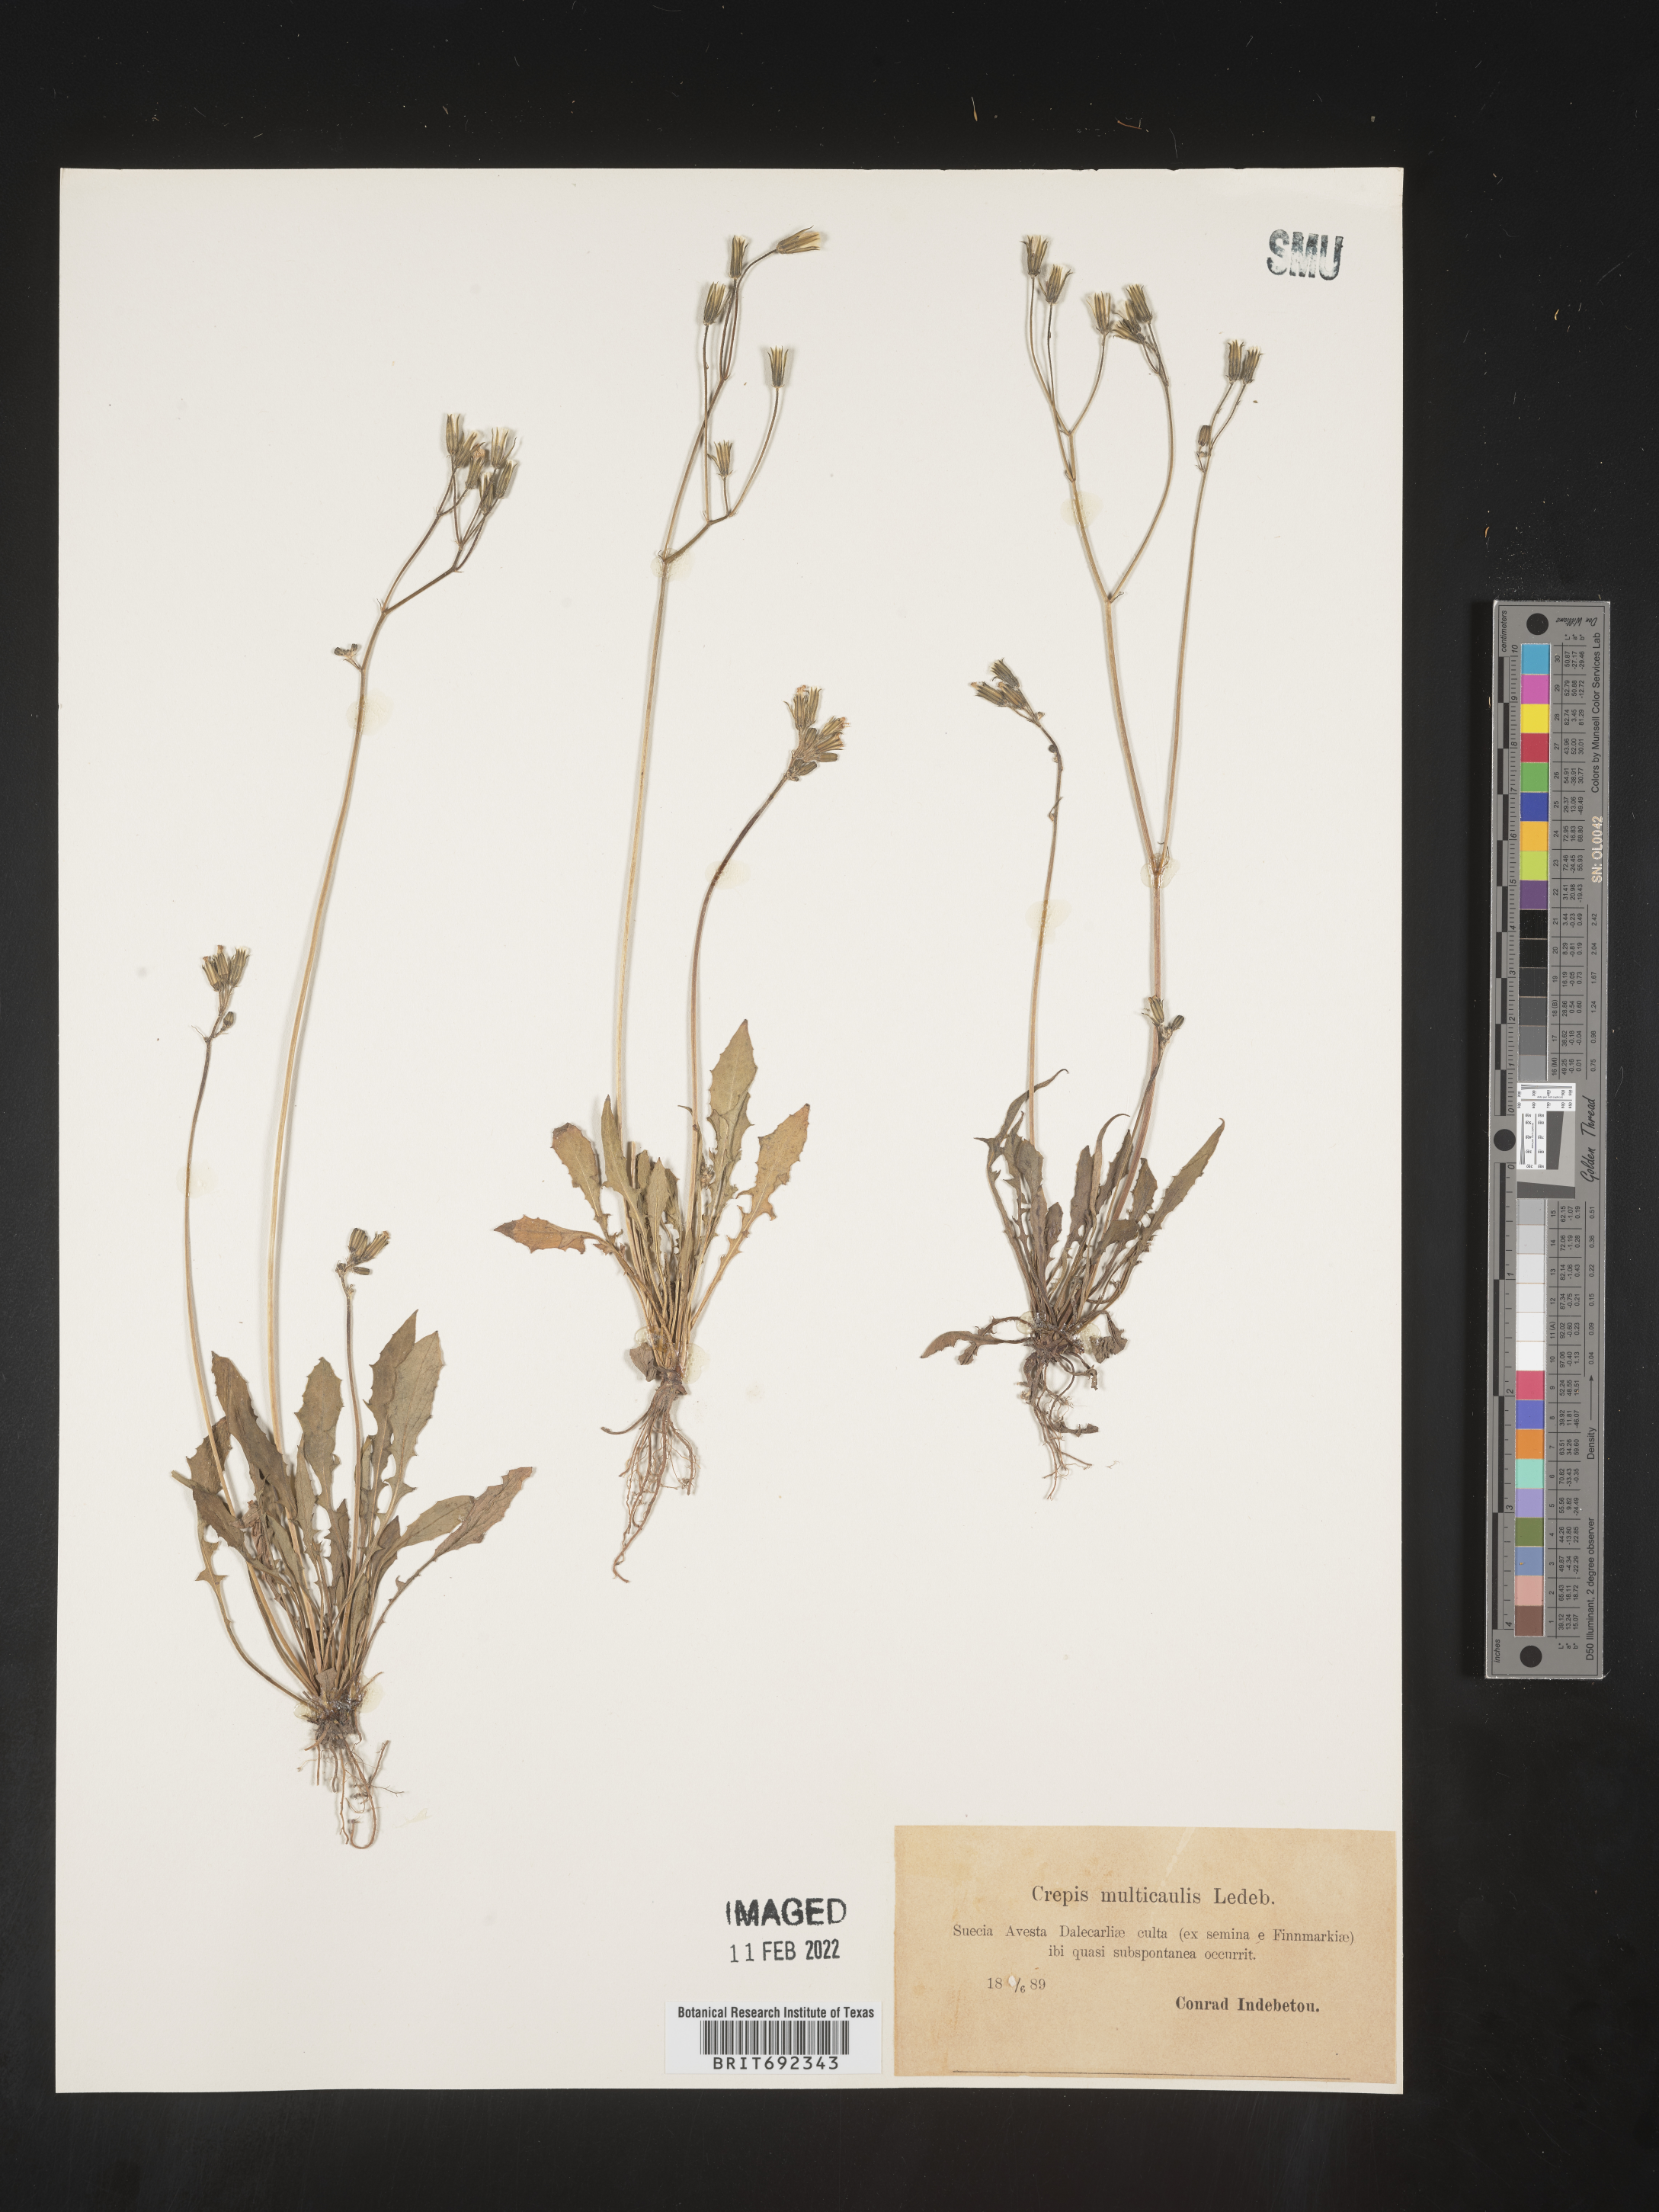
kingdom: Plantae
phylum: Tracheophyta
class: Magnoliopsida
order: Asterales
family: Asteraceae
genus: Crepis
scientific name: Crepis
